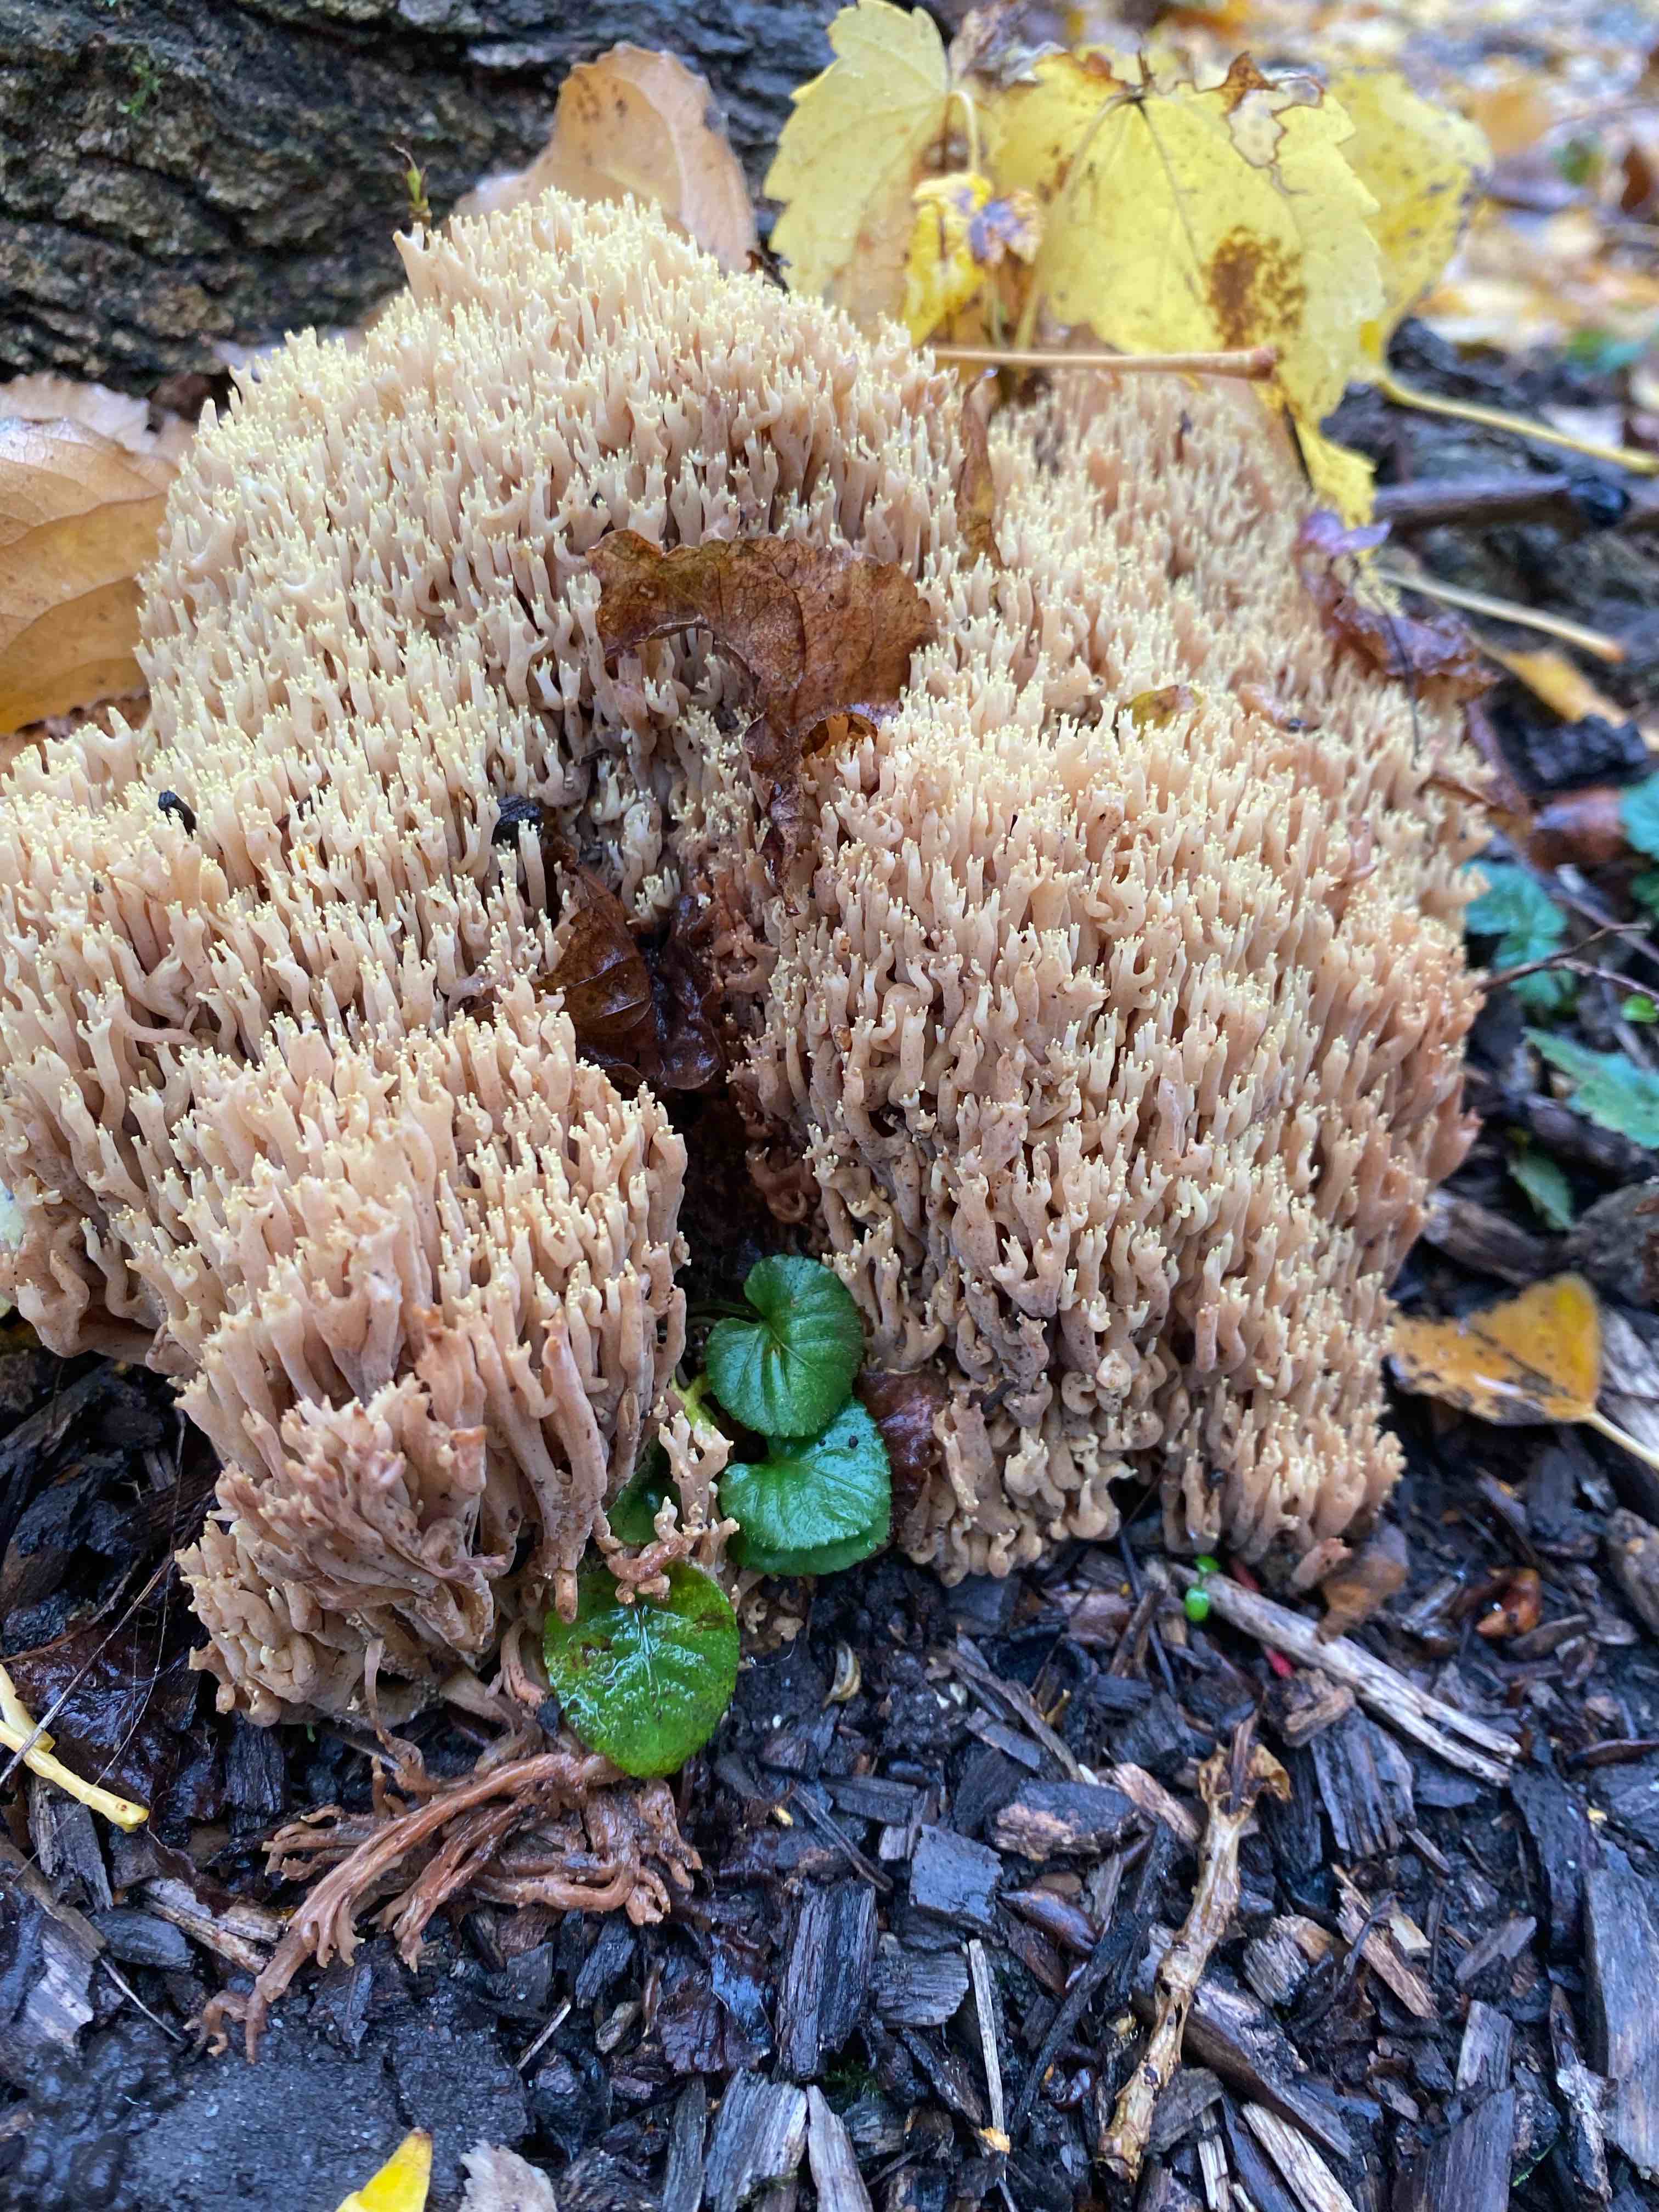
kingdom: Fungi
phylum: Basidiomycota
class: Agaricomycetes
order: Gomphales
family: Gomphaceae
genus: Ramaria
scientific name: Ramaria stricta
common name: rank koralsvamp
